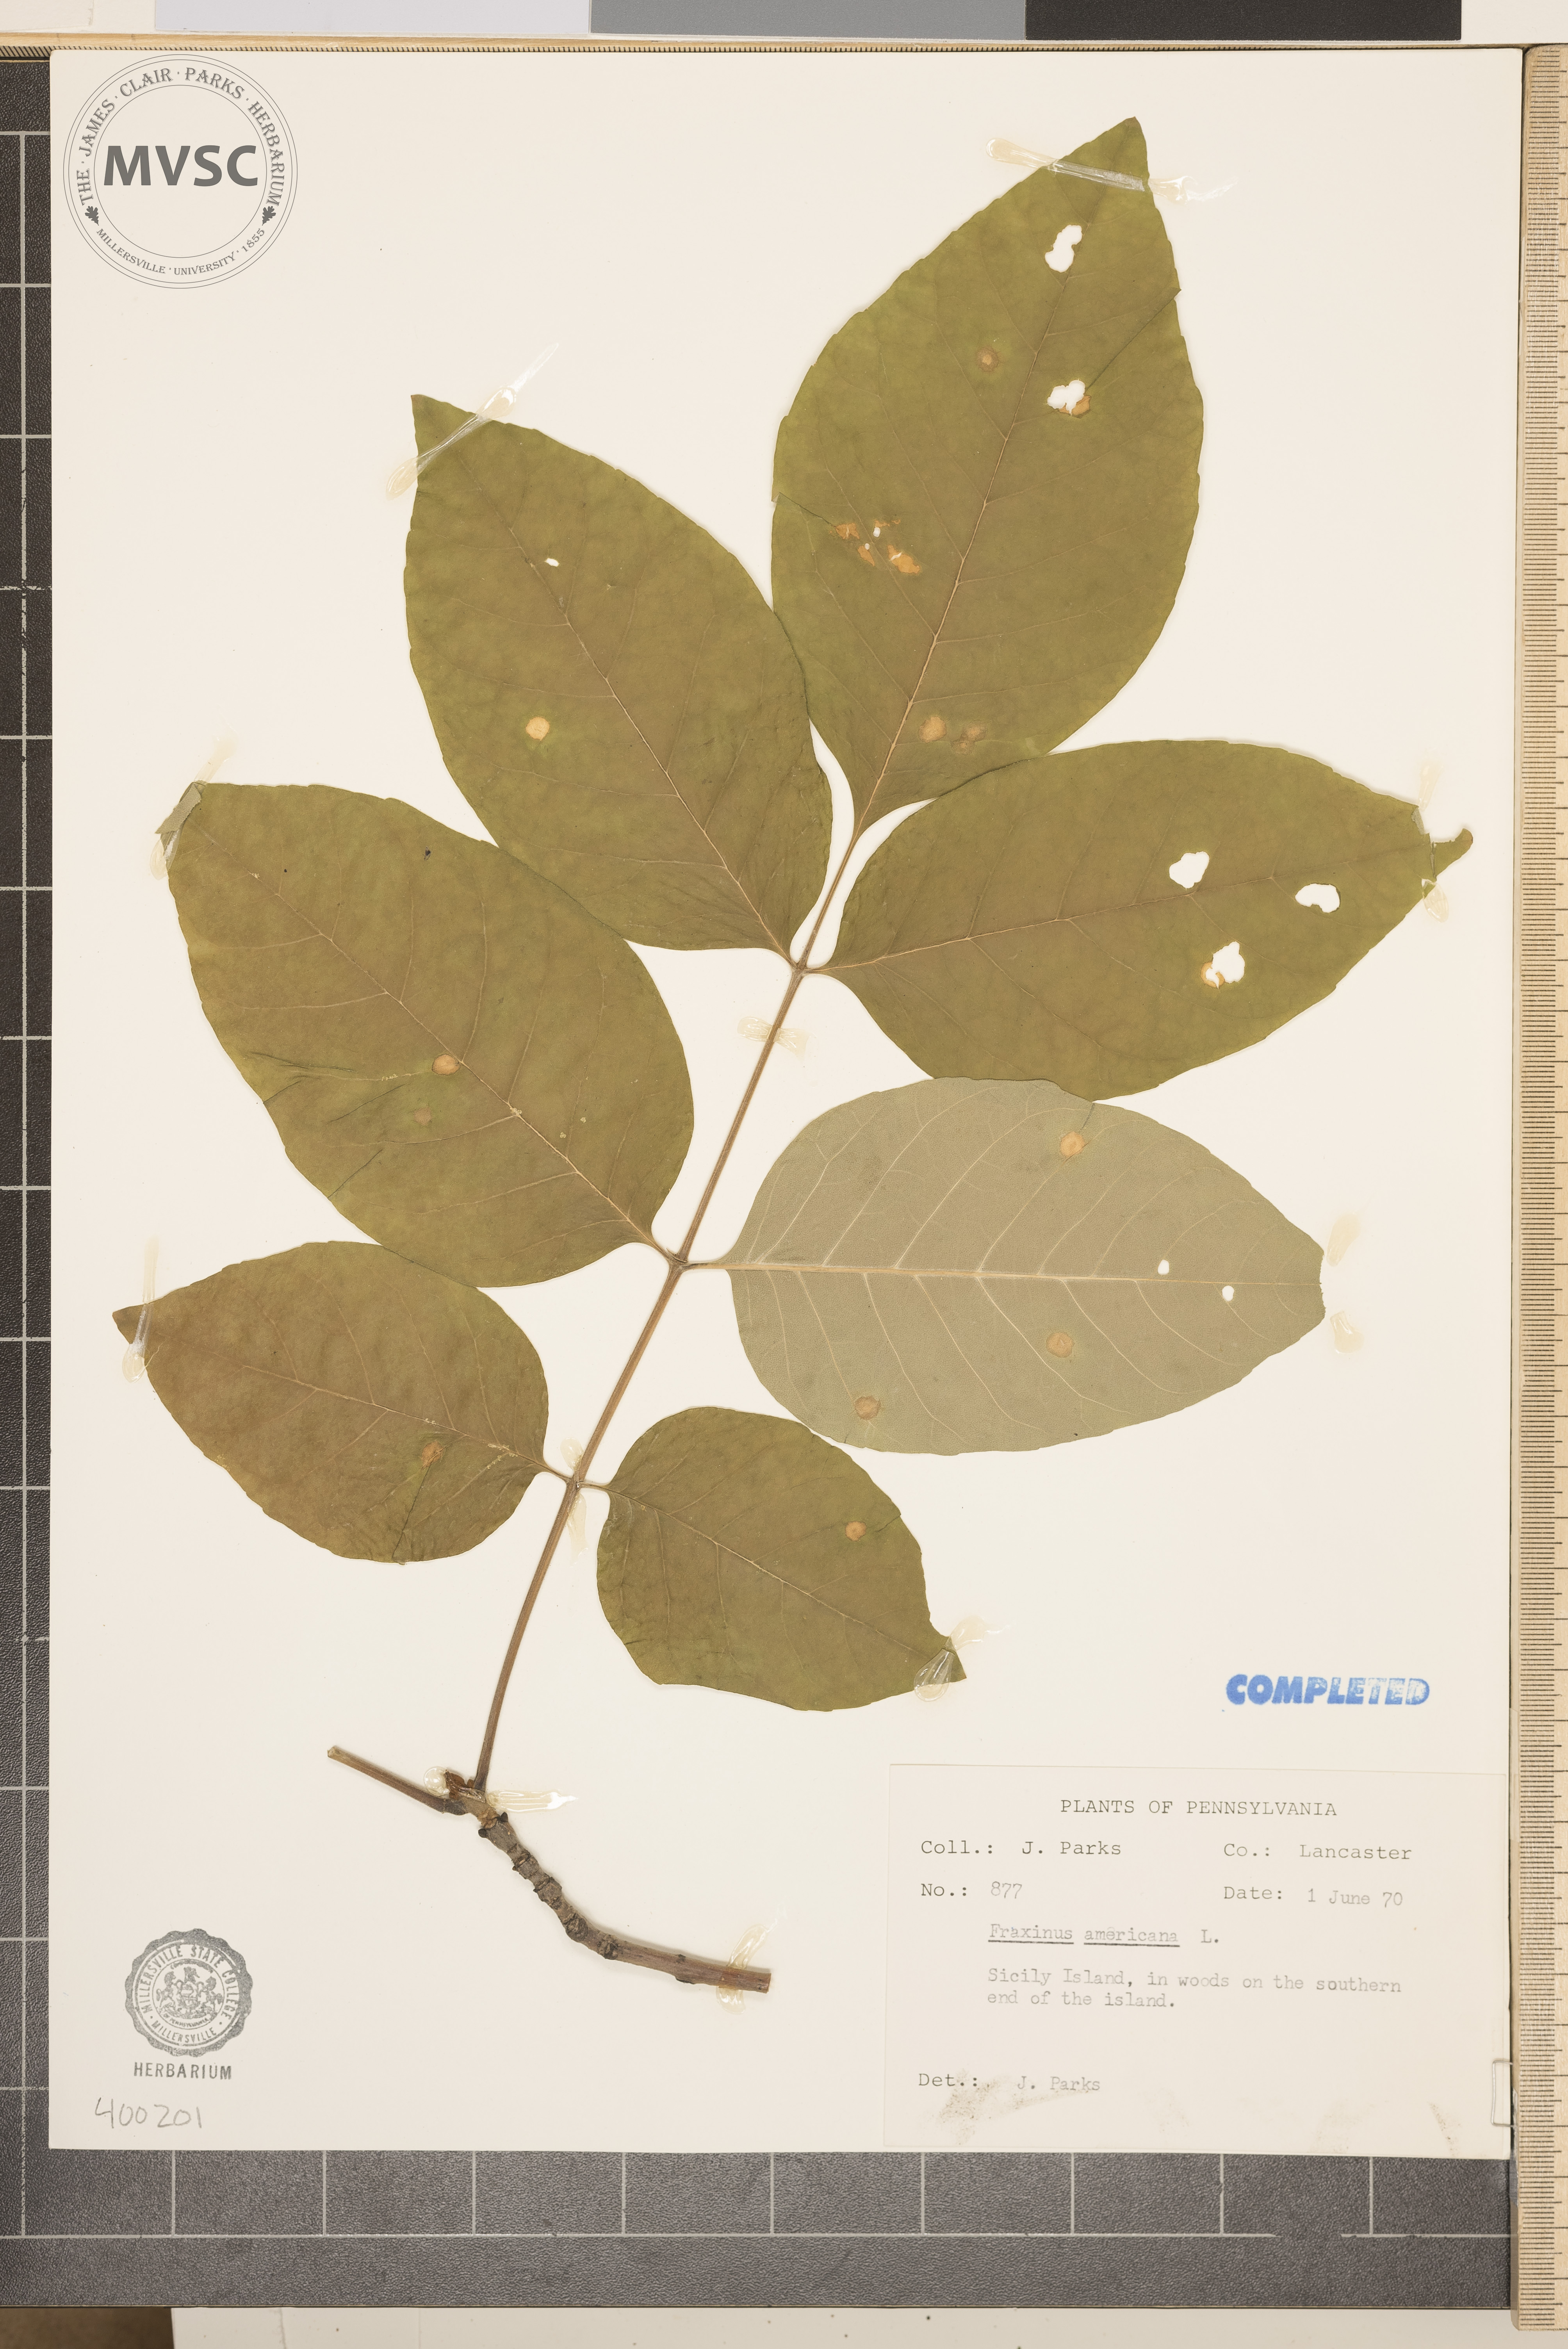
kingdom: Plantae
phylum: Tracheophyta
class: Magnoliopsida
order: Lamiales
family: Oleaceae
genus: Fraxinus
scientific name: Fraxinus americana
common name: ash
